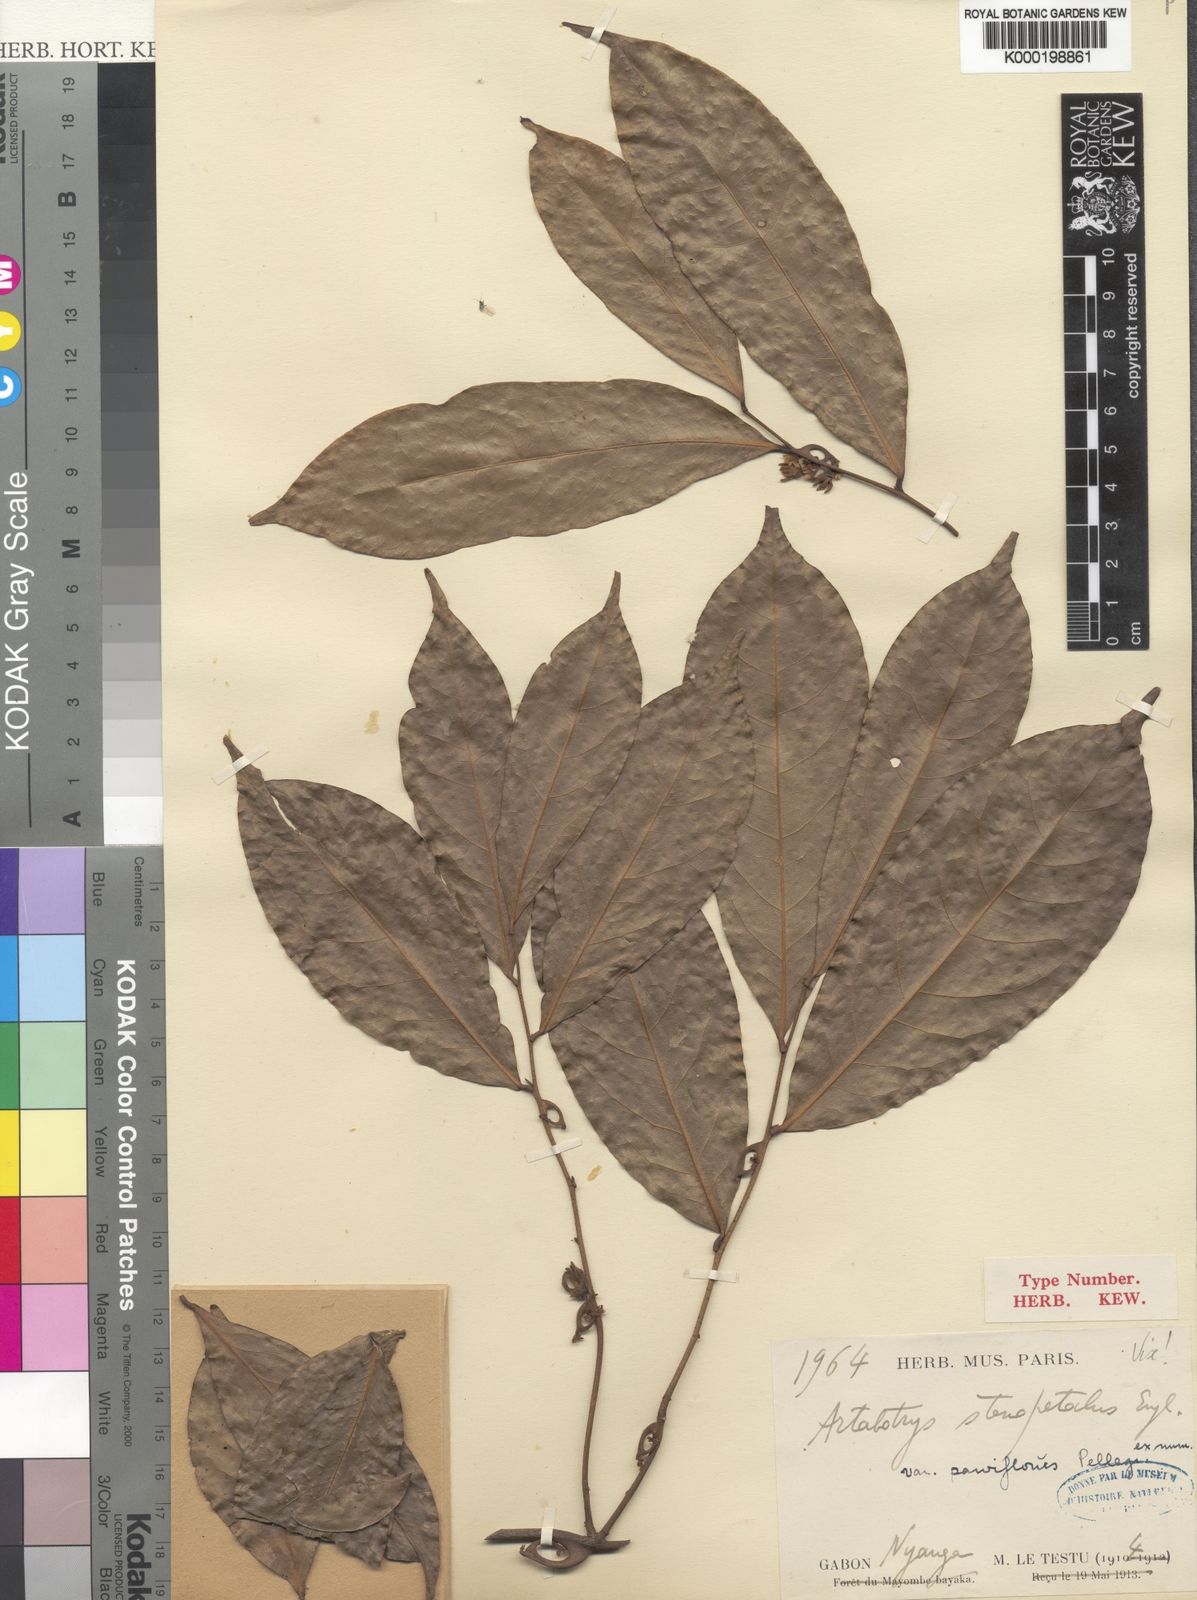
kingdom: Plantae
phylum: Tracheophyta
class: Magnoliopsida
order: Magnoliales
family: Annonaceae
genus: Artabotrys
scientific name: Artabotrys stenopetalus
